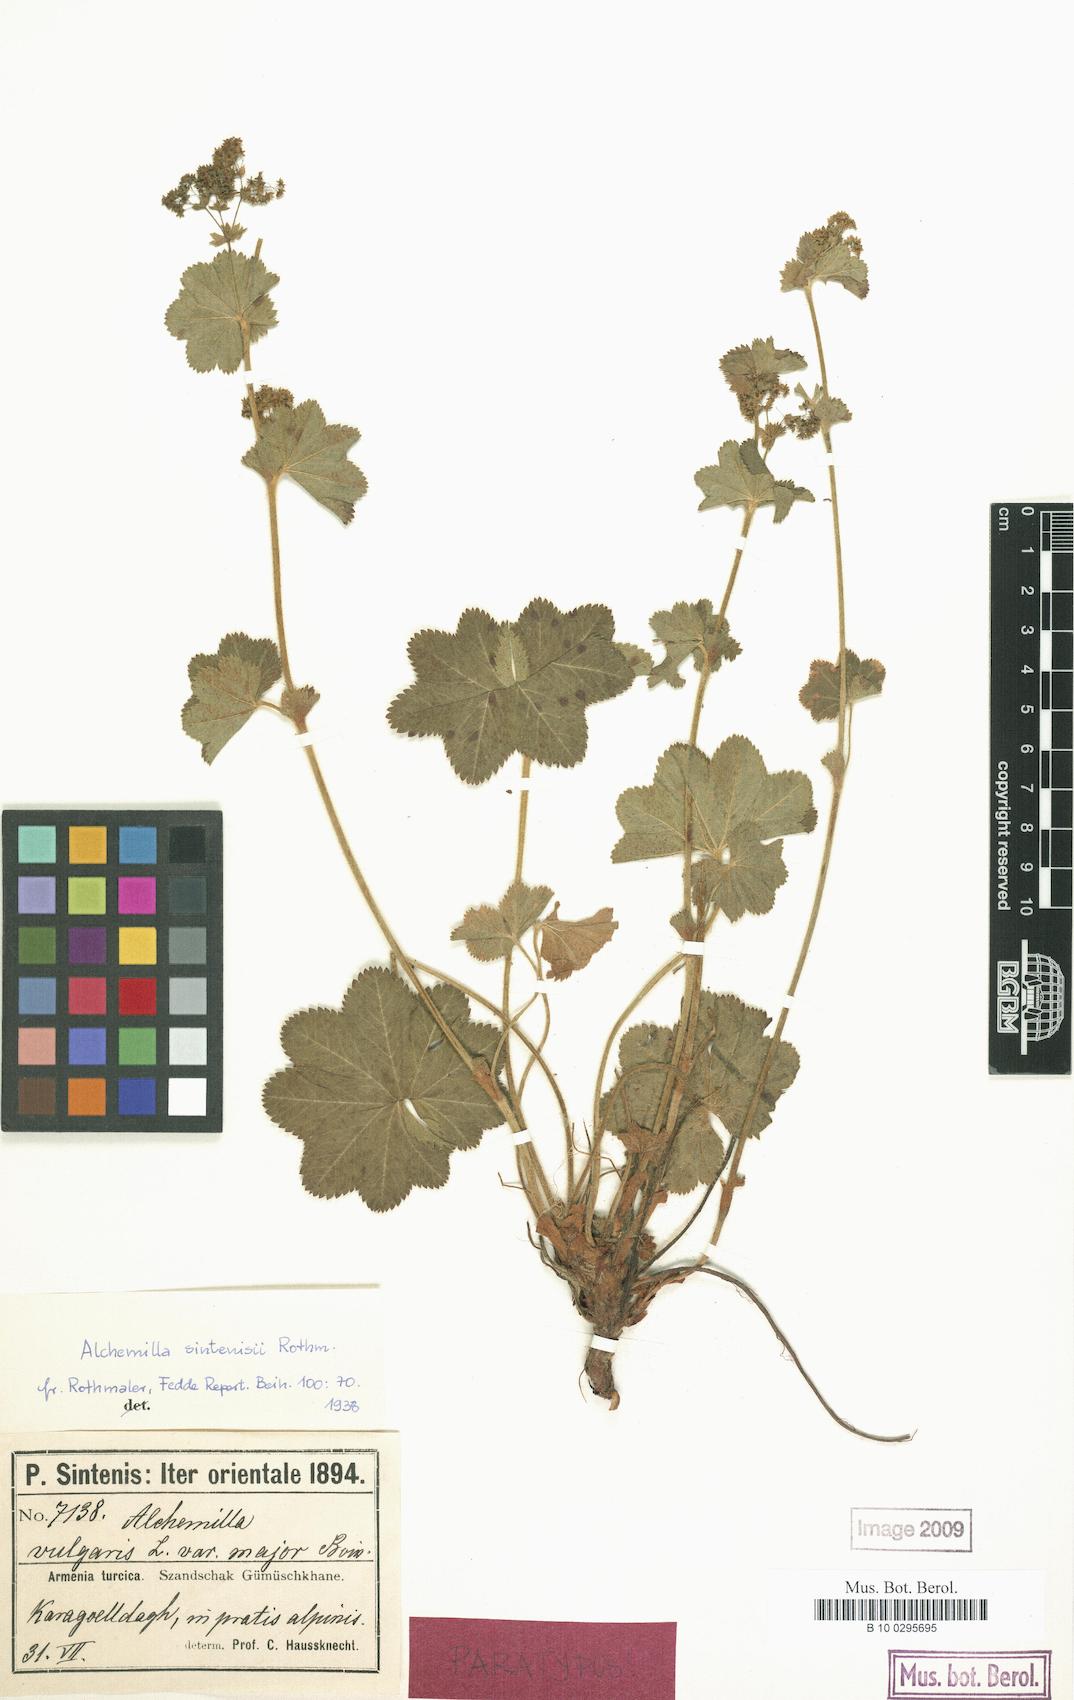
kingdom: Plantae
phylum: Tracheophyta
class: Magnoliopsida
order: Rosales
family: Rosaceae
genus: Alchemilla
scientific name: Alchemilla sintenisii
